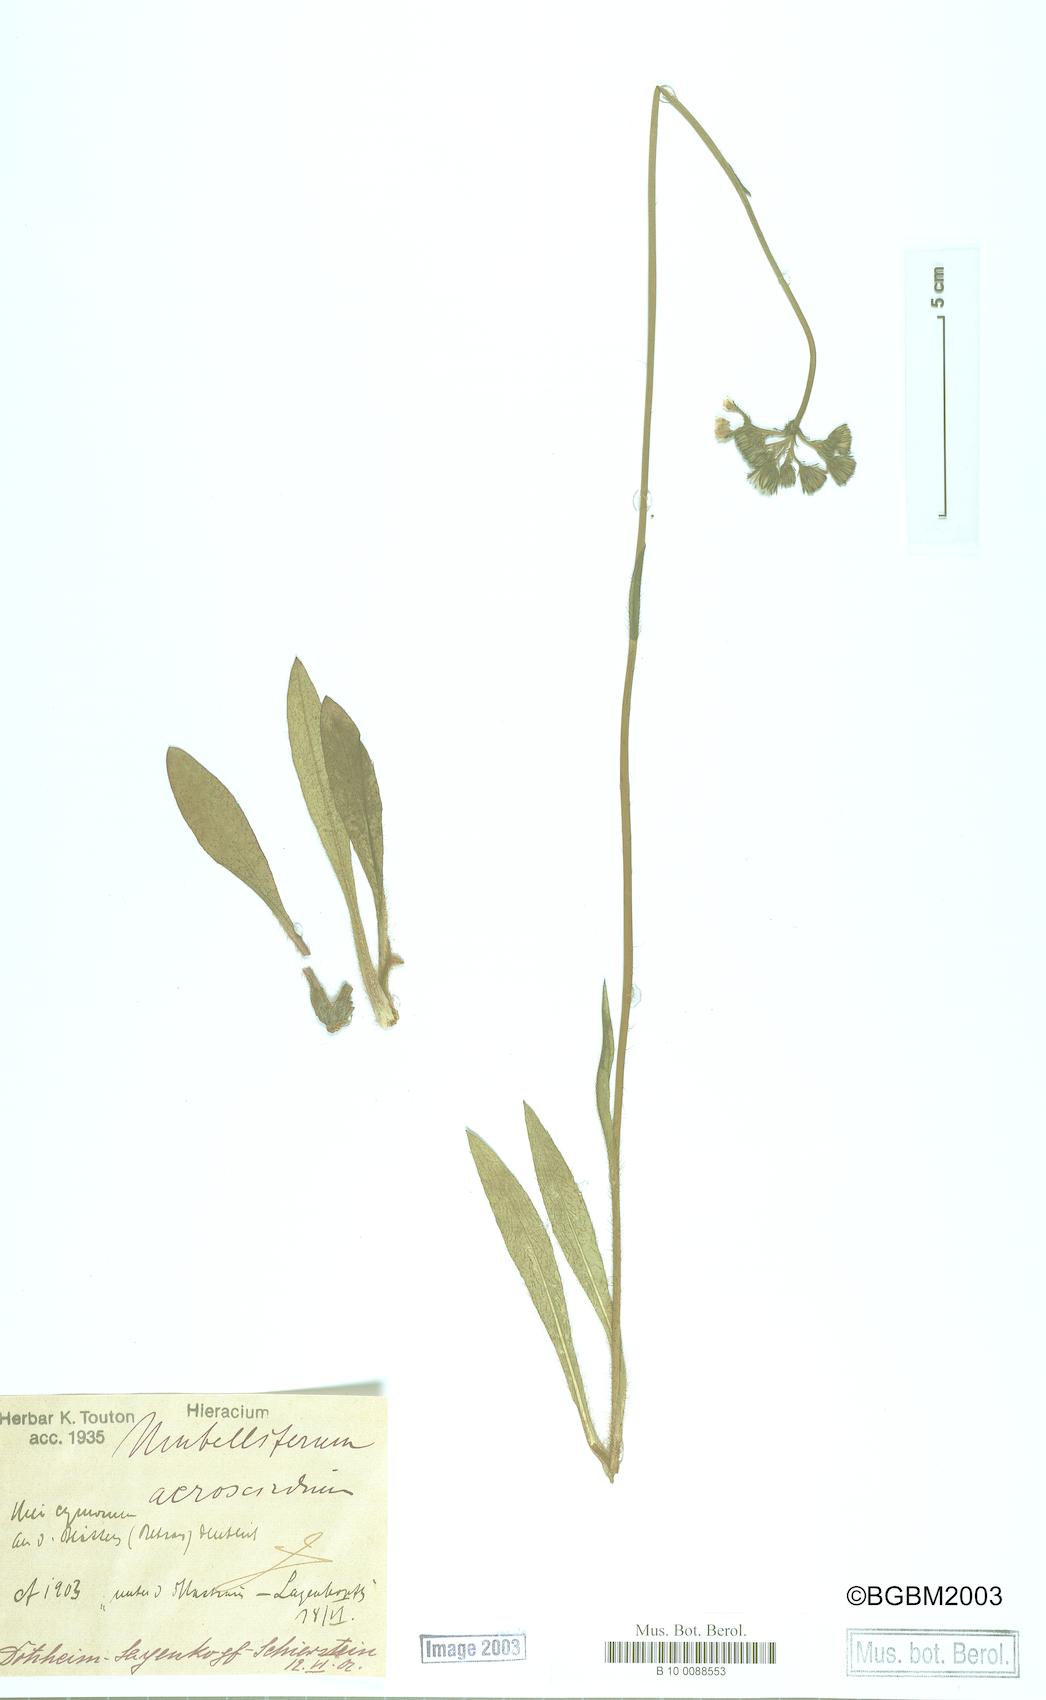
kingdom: Plantae
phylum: Tracheophyta
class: Magnoliopsida
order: Asterales
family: Asteraceae
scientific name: Asteraceae
